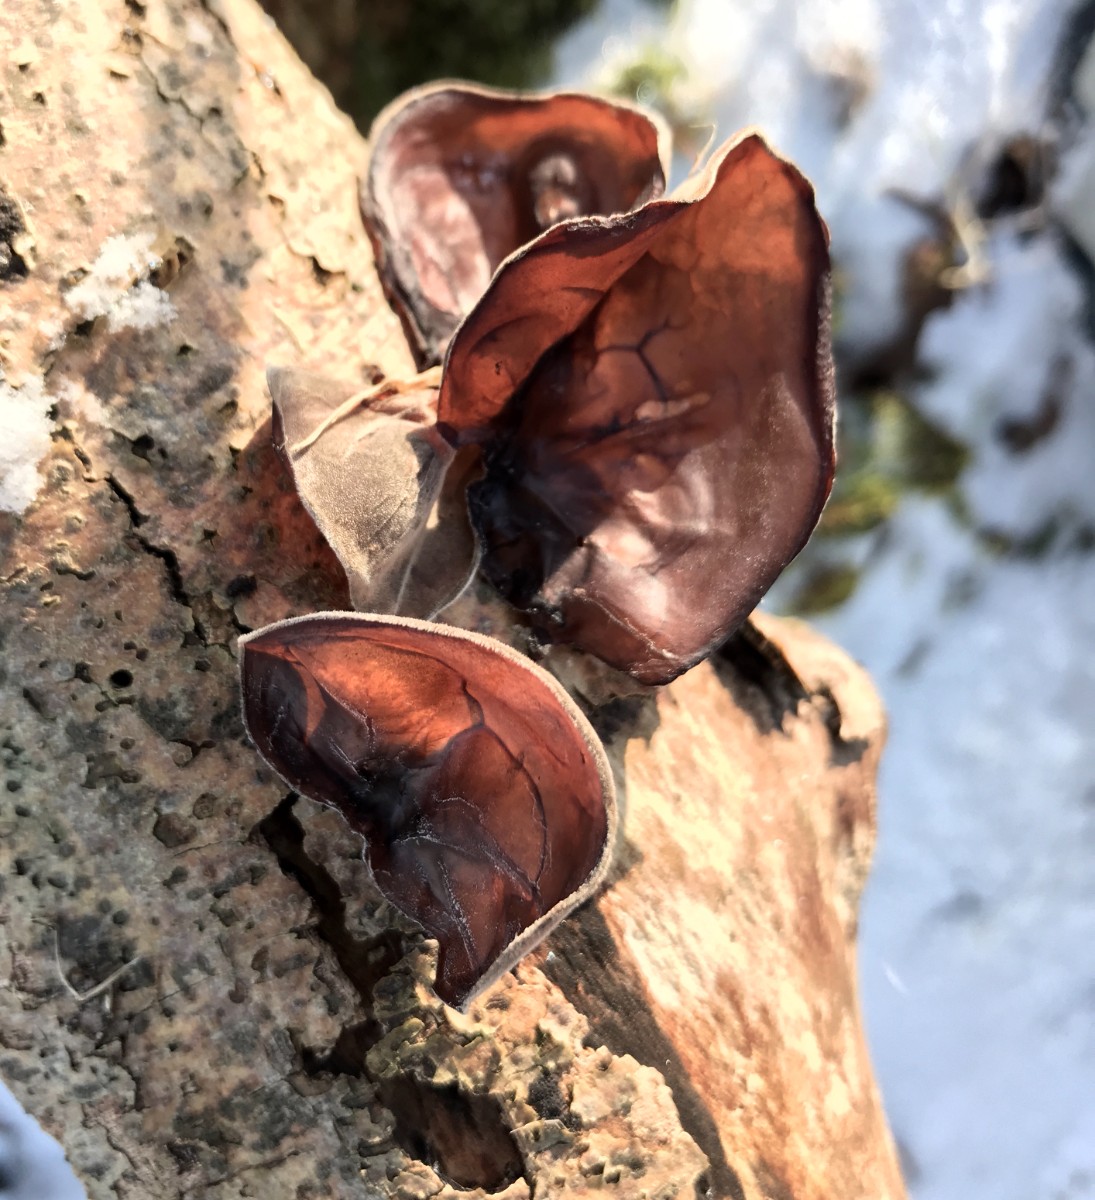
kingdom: Fungi
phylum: Basidiomycota
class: Agaricomycetes
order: Auriculariales
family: Auriculariaceae
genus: Auricularia
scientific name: Auricularia auricula-judae
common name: almindelig judasøre
